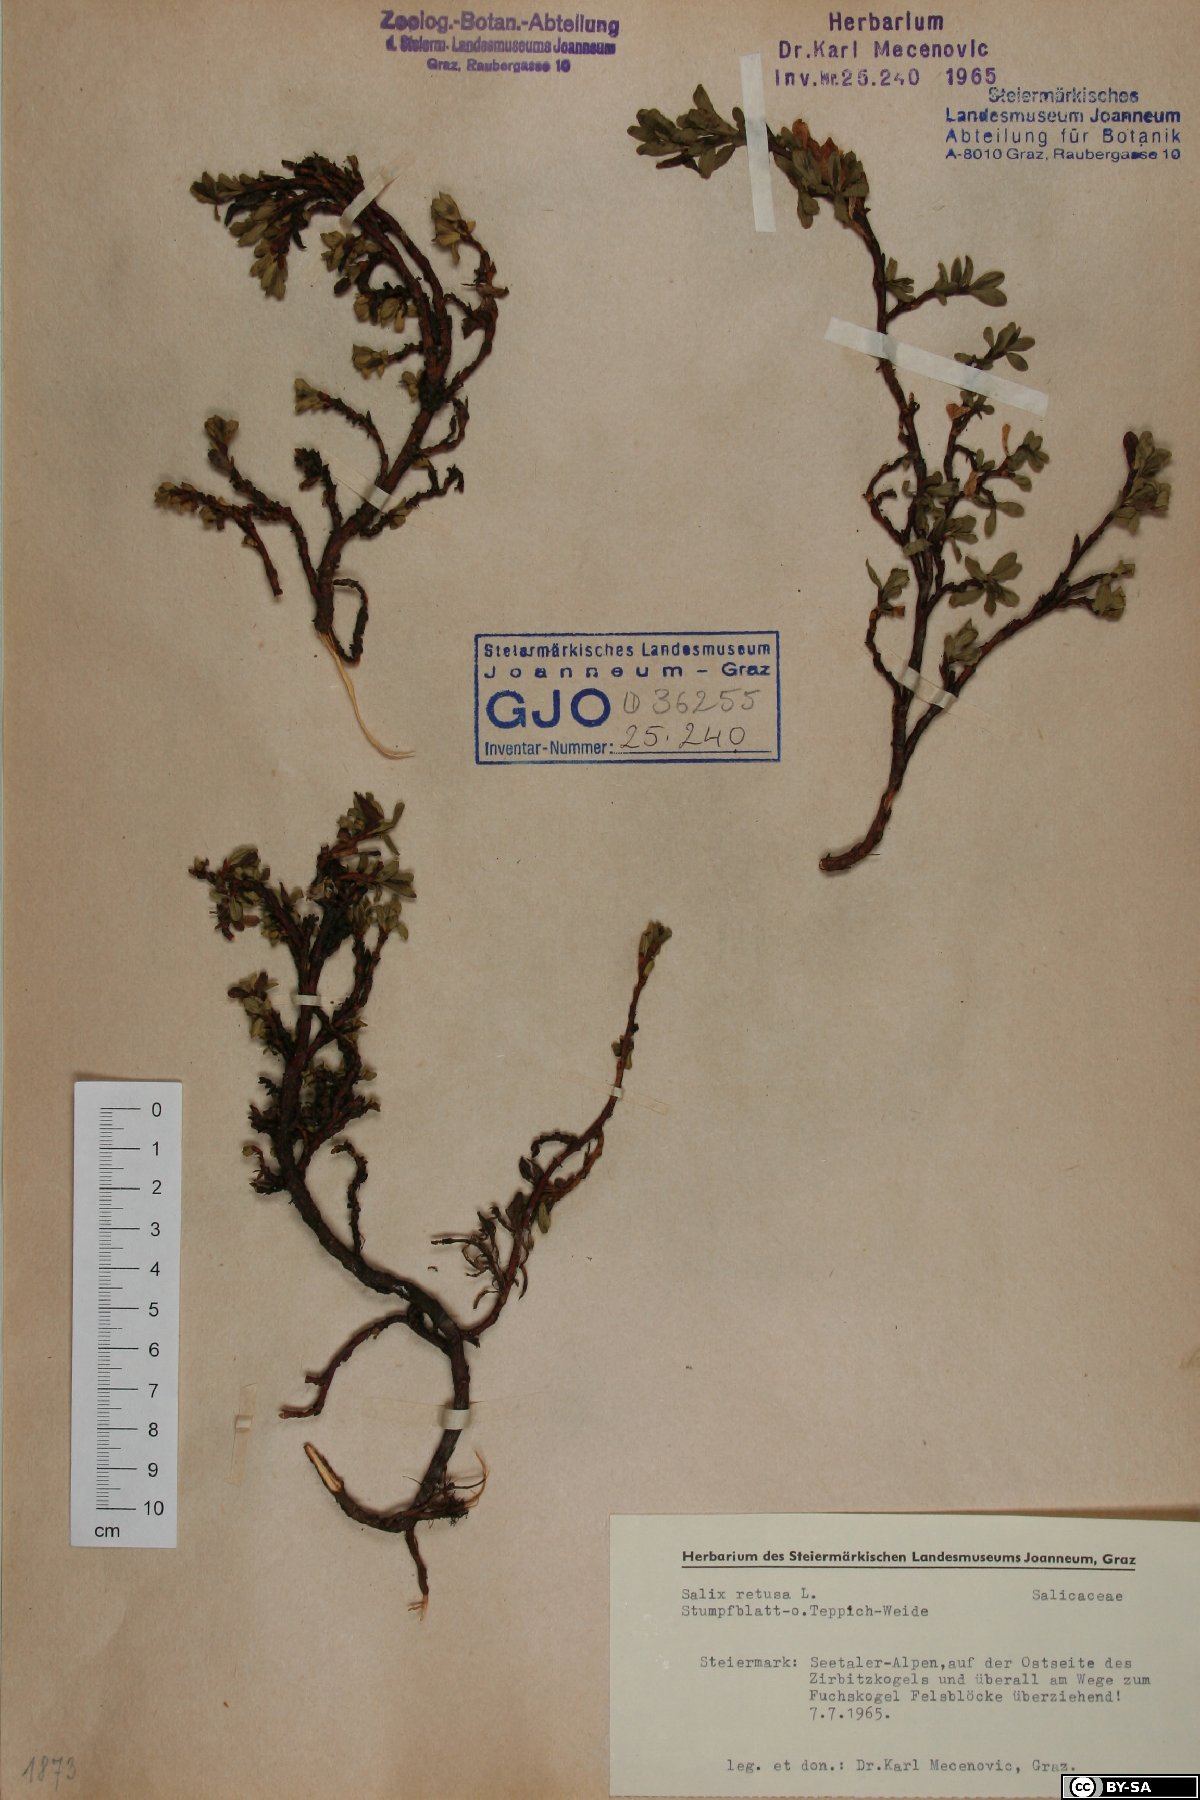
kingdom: Plantae
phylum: Tracheophyta
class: Magnoliopsida
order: Malpighiales
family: Salicaceae
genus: Salix
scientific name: Salix retusa
